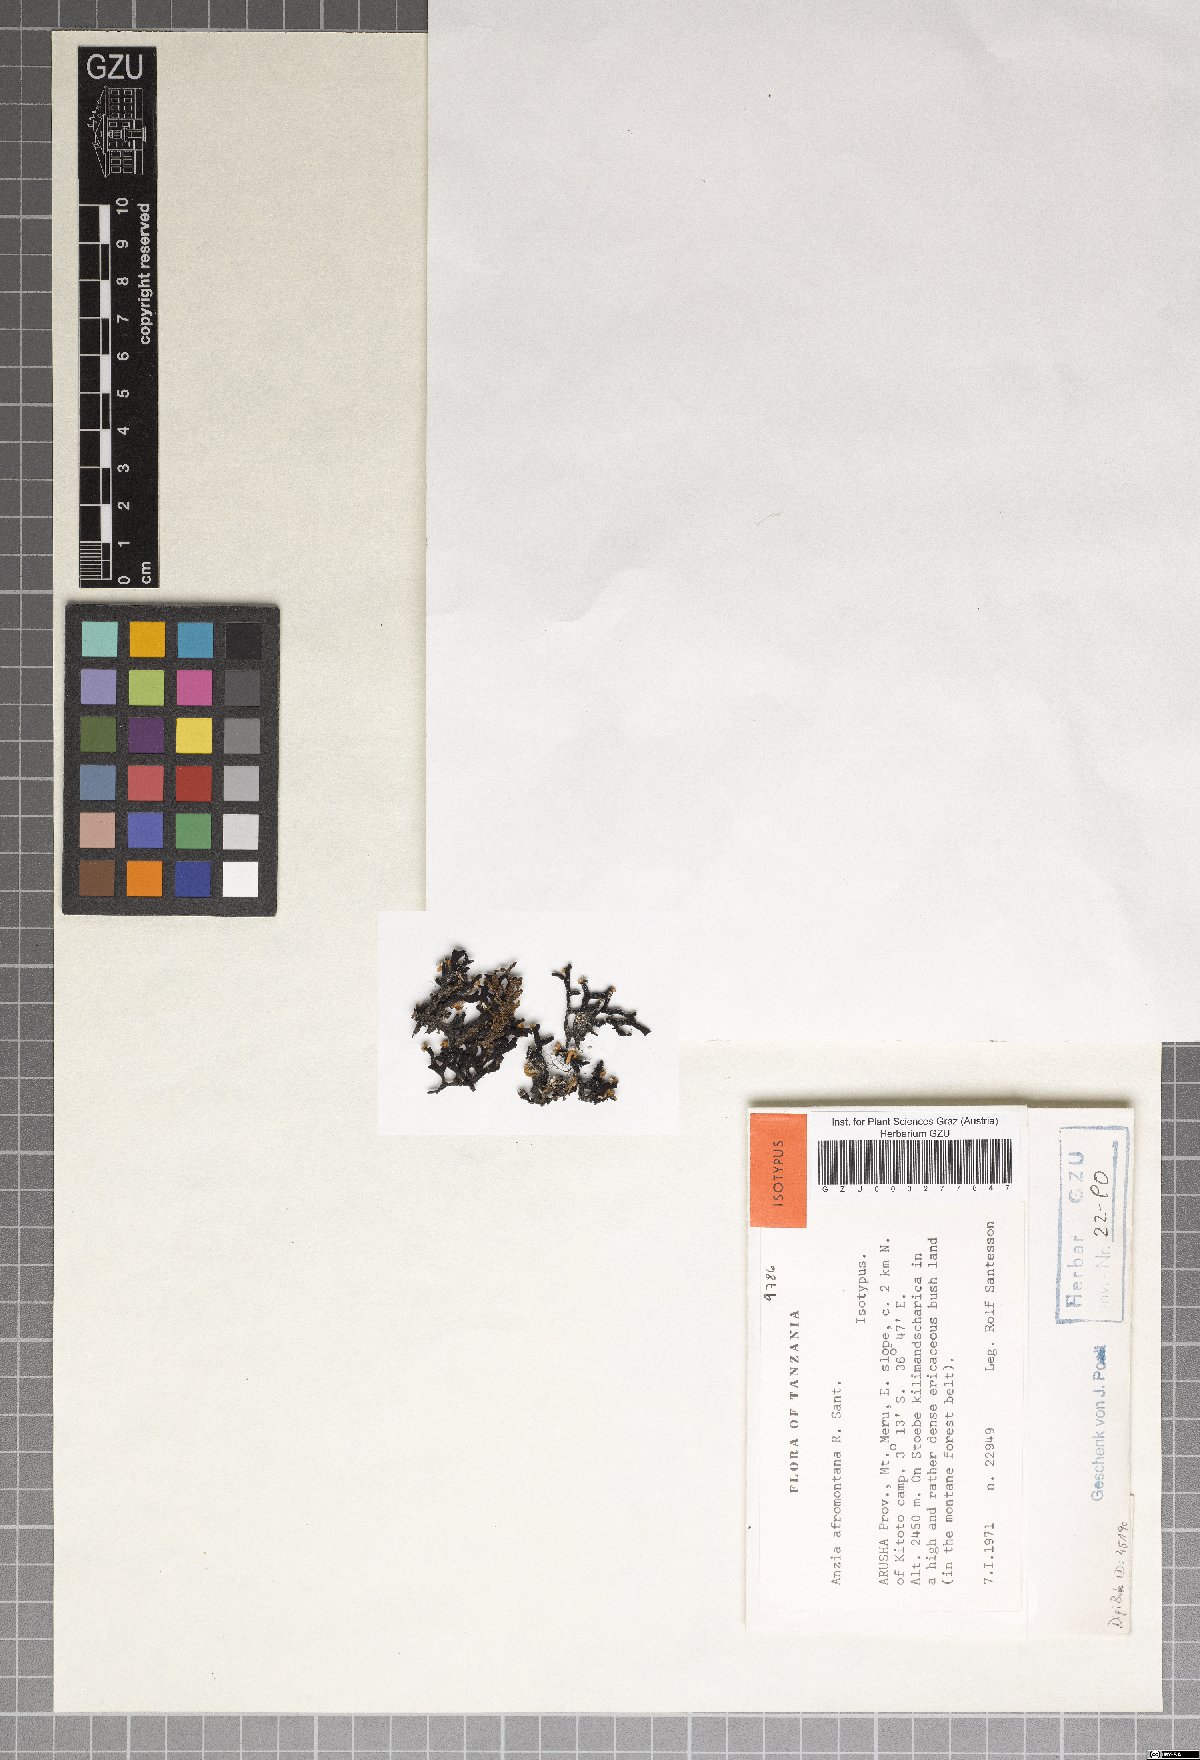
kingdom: Fungi
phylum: Ascomycota
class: Lecanoromycetes
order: Lecanorales
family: Parmeliaceae
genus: Anzia
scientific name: Anzia afromontana
